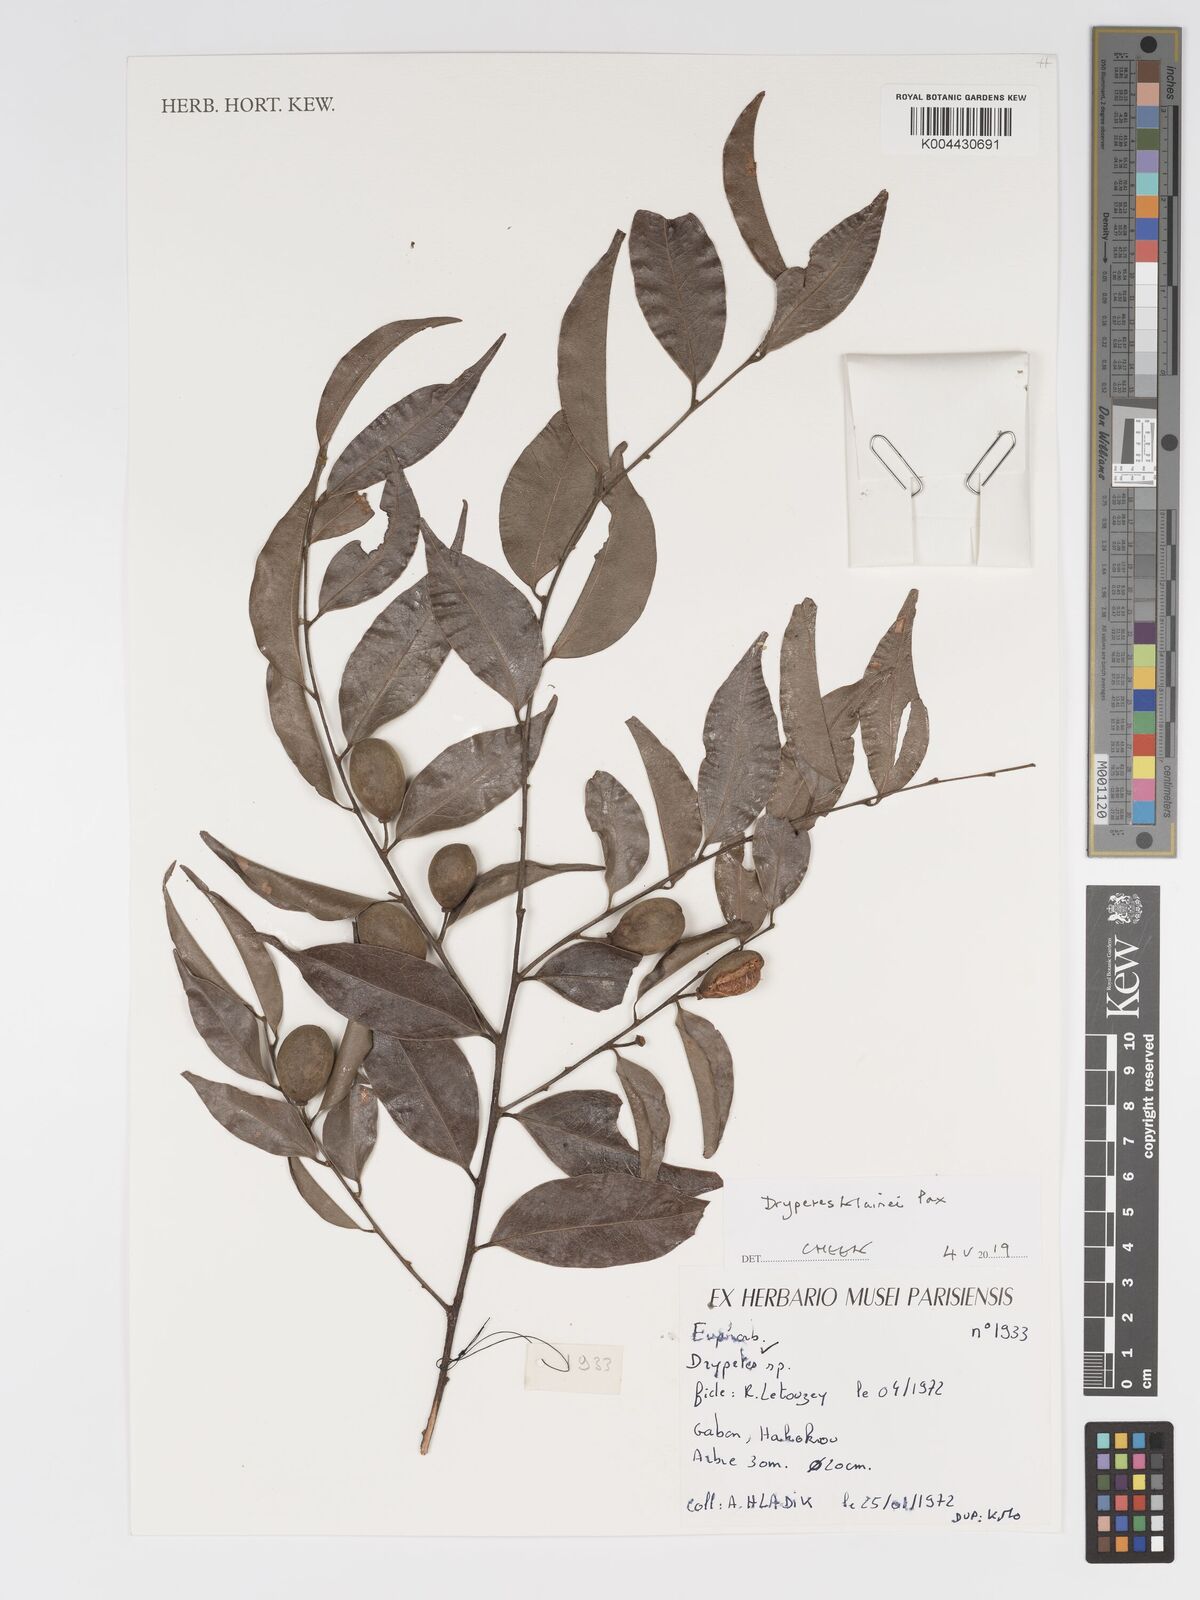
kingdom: Plantae
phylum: Tracheophyta
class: Magnoliopsida
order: Malpighiales
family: Putranjivaceae
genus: Drypetes
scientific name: Drypetes klainei
